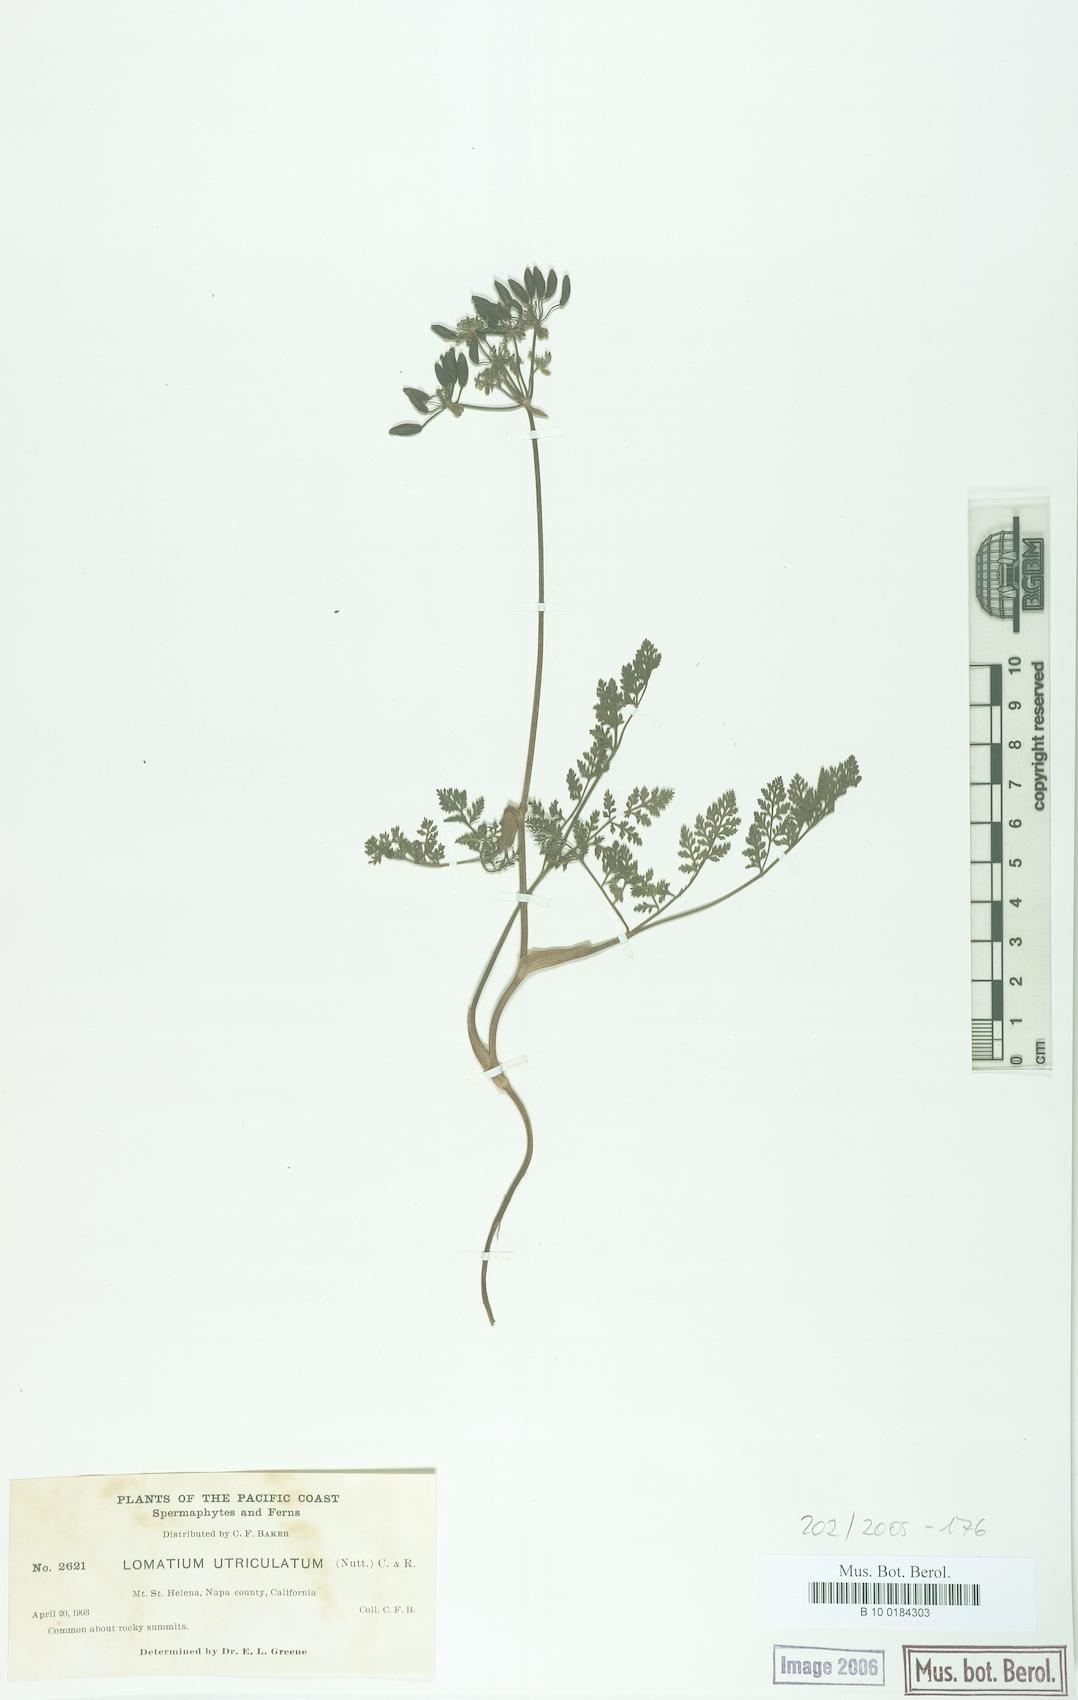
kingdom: Plantae
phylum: Tracheophyta
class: Magnoliopsida
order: Apiales
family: Apiaceae
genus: Lomatium
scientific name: Lomatium utriculatum
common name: Fine-leaf desert-parsley
